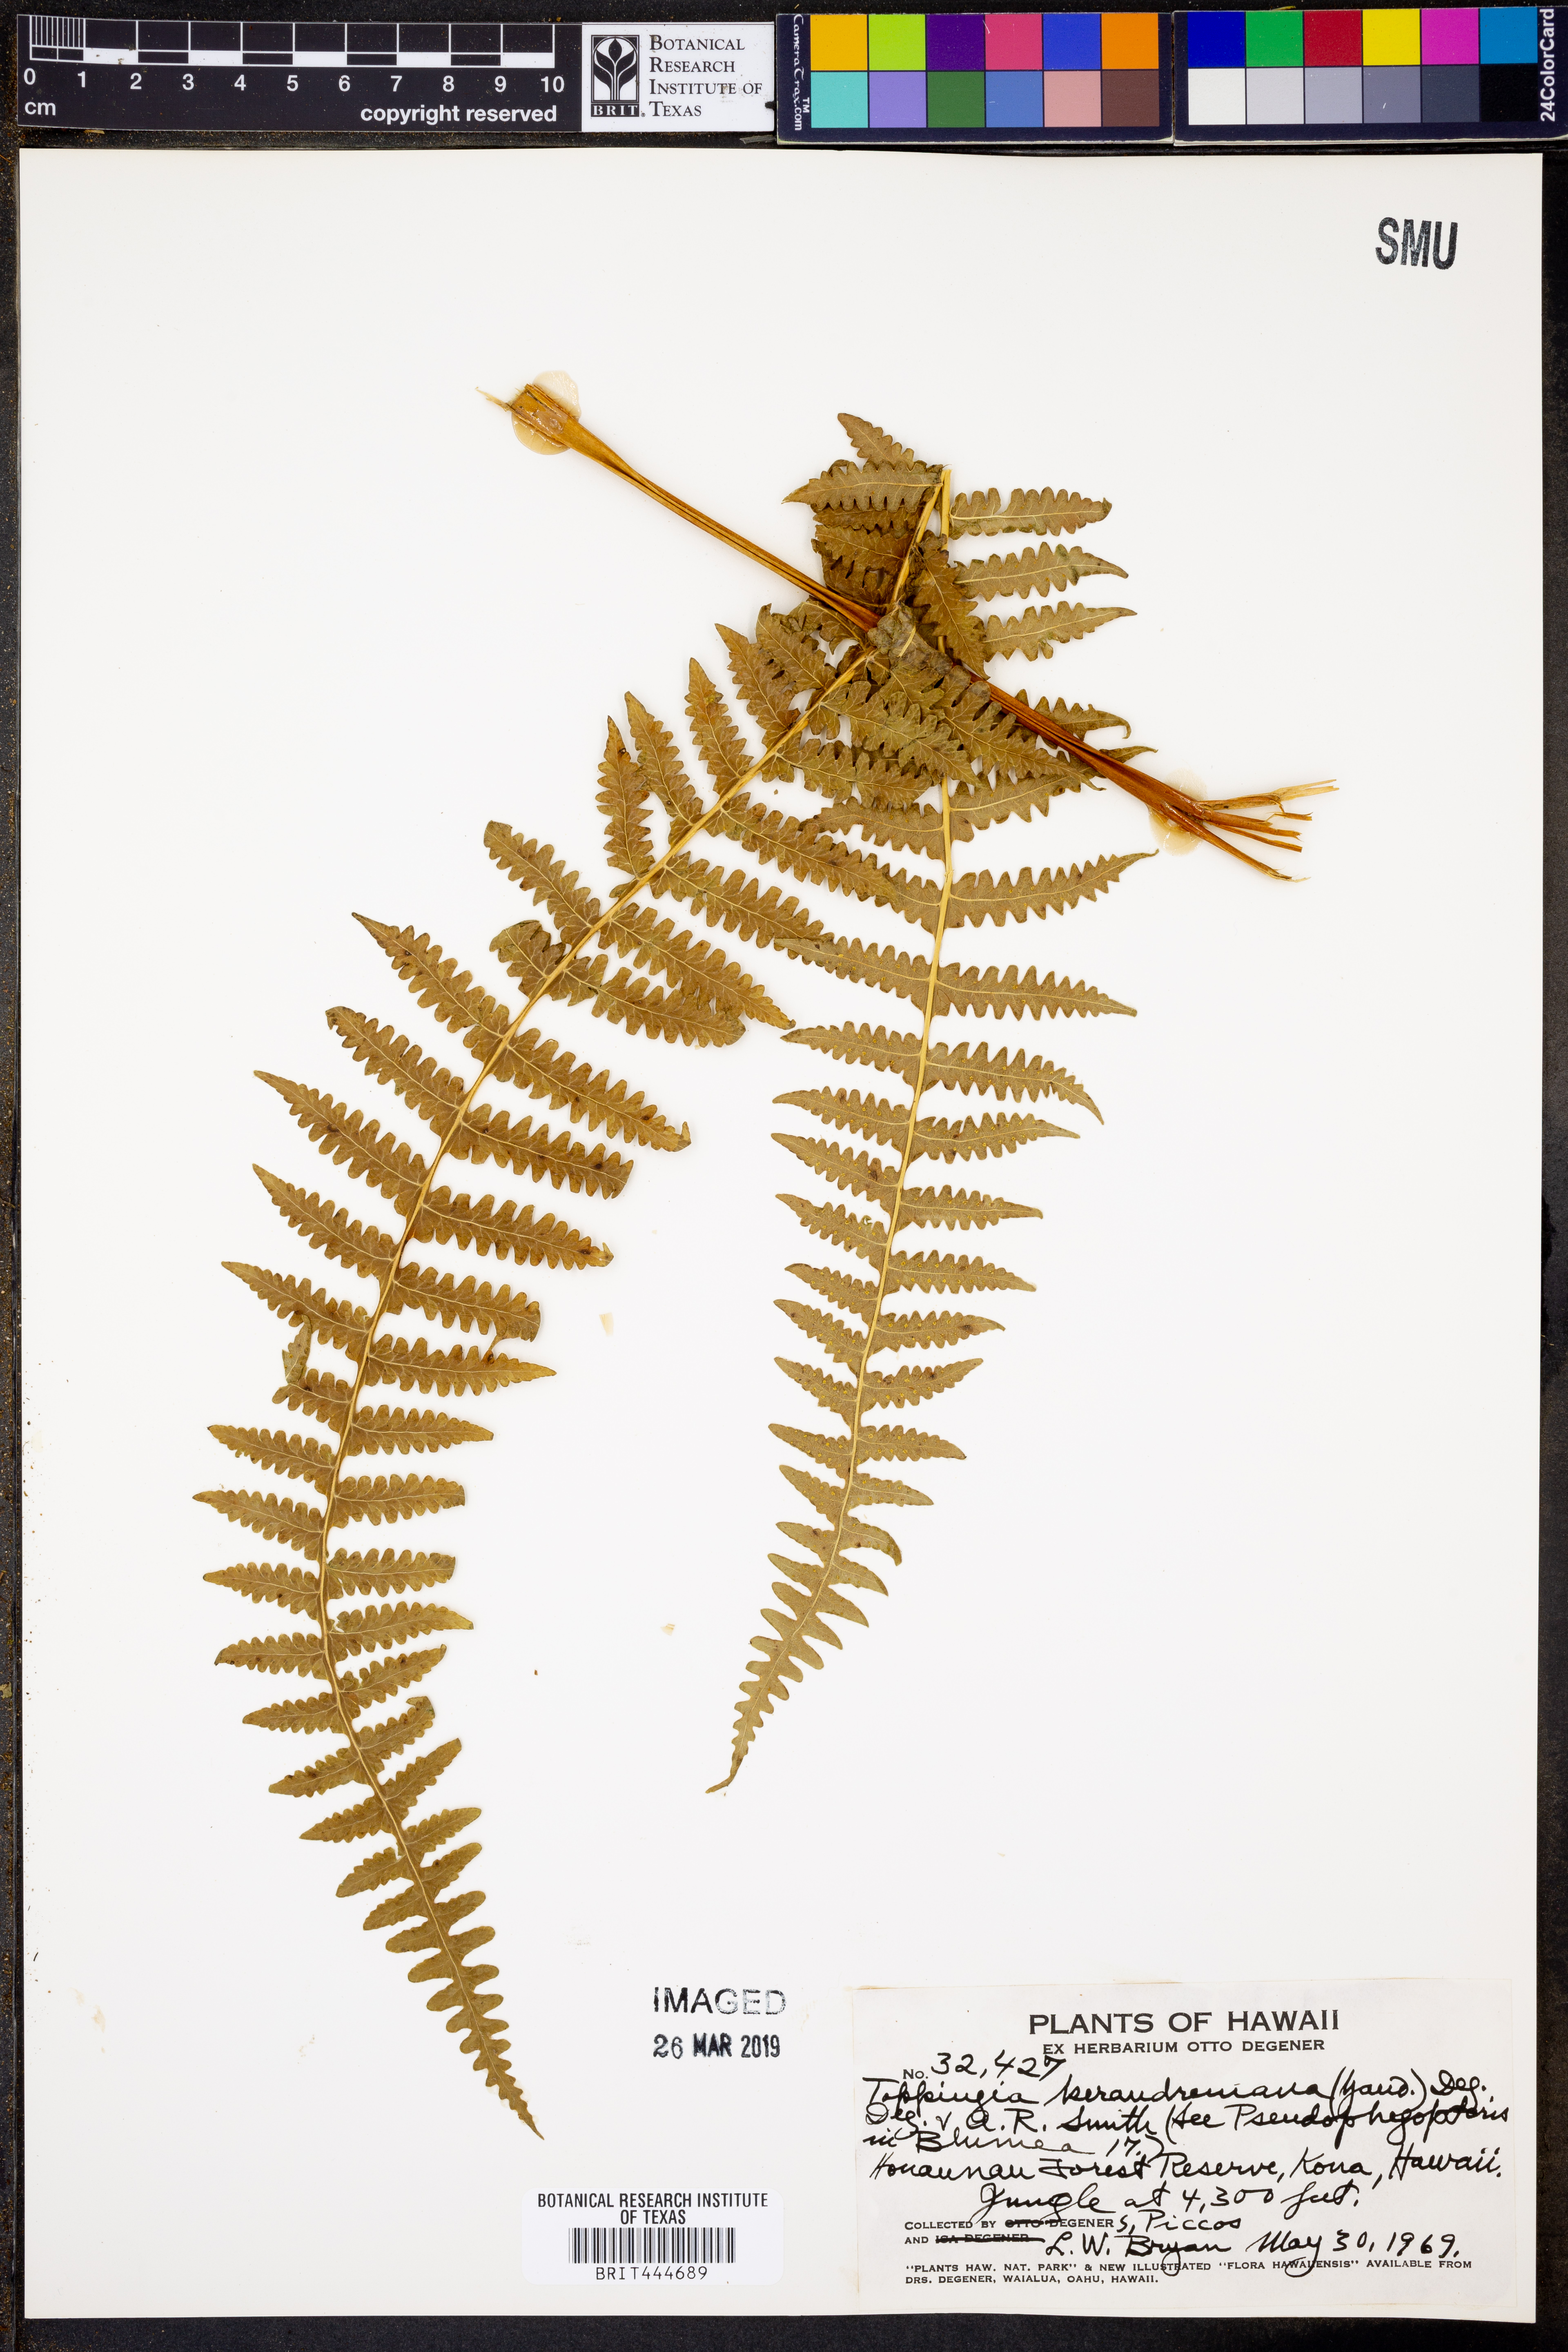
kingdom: Plantae
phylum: Tracheophyta
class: Polypodiopsida
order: Polypodiales
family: Thelypteridaceae
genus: Pseudophegopteris
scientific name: Pseudophegopteris keraudreniana
